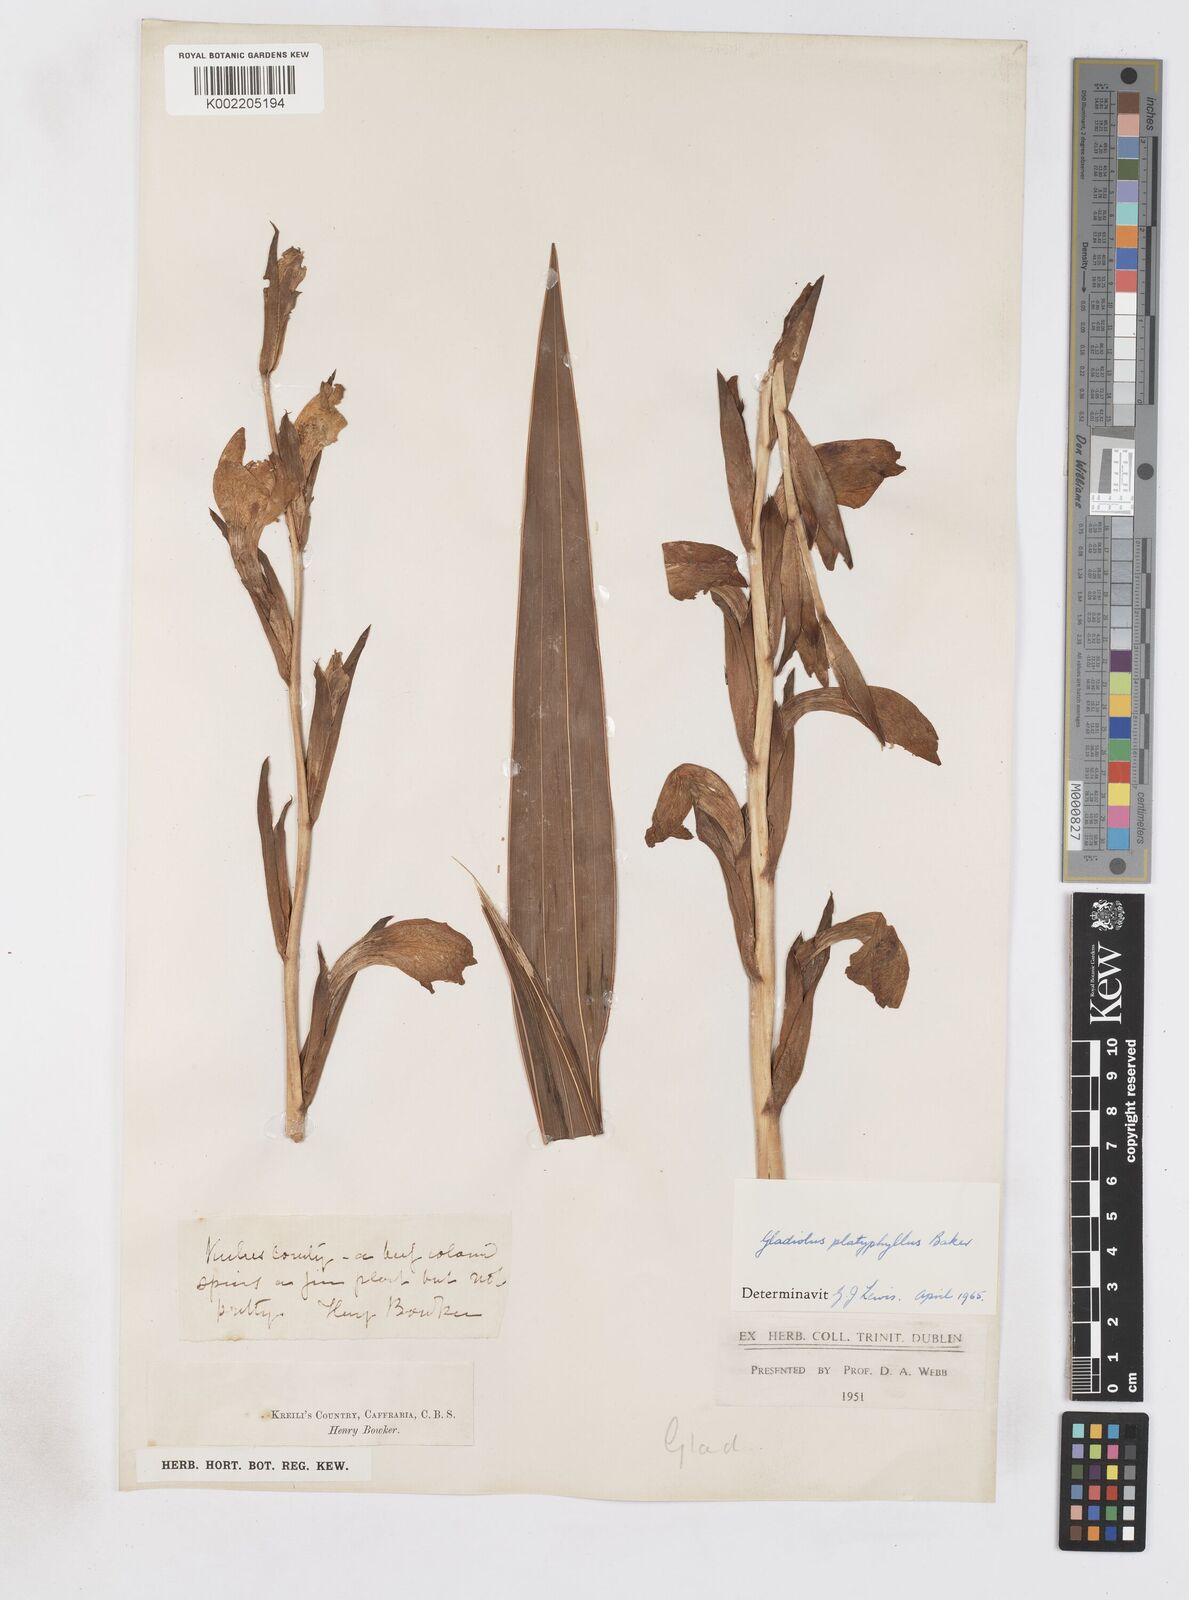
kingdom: Plantae
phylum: Tracheophyta
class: Liliopsida
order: Asparagales
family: Iridaceae
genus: Gladiolus
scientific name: Gladiolus dalenii
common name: Cornflag
